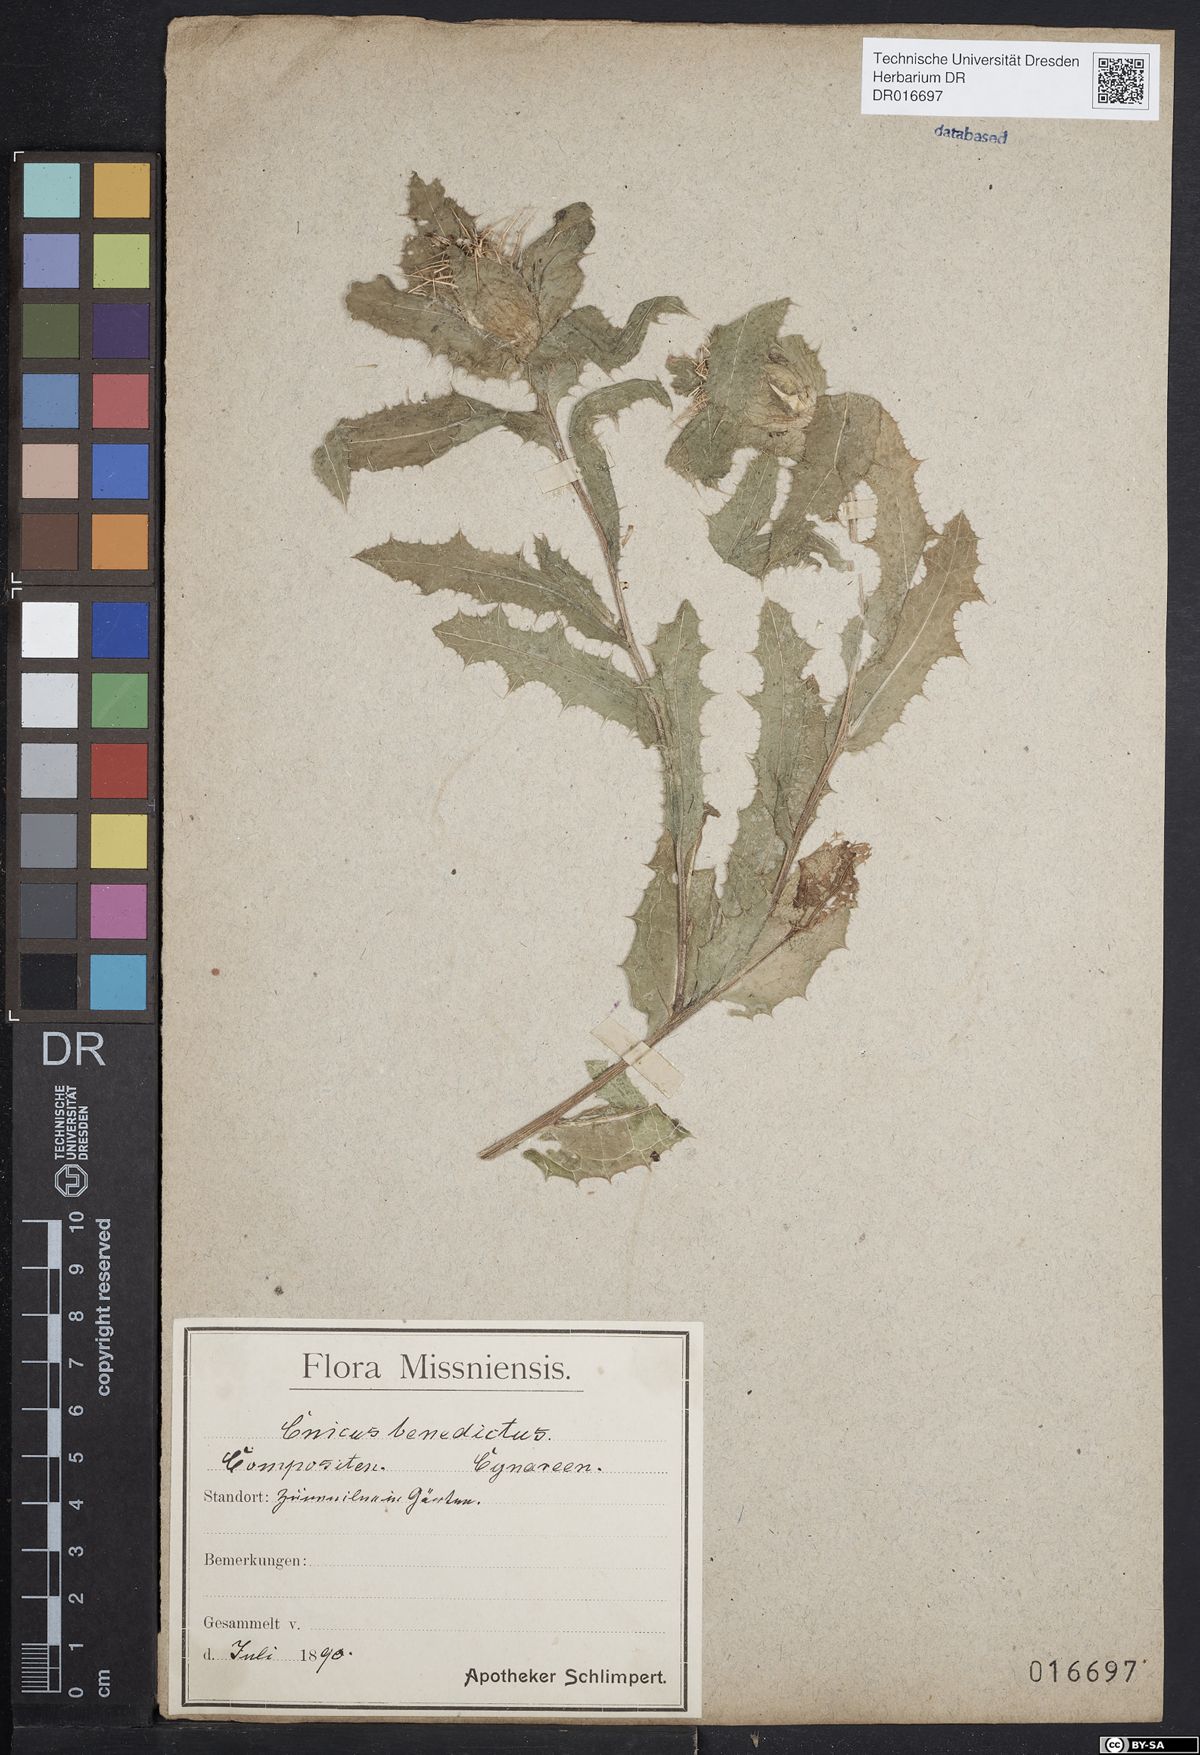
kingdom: Plantae
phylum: Tracheophyta
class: Magnoliopsida
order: Asterales
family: Asteraceae
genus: Centaurea
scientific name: Centaurea benedicta
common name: Blessed thistle
